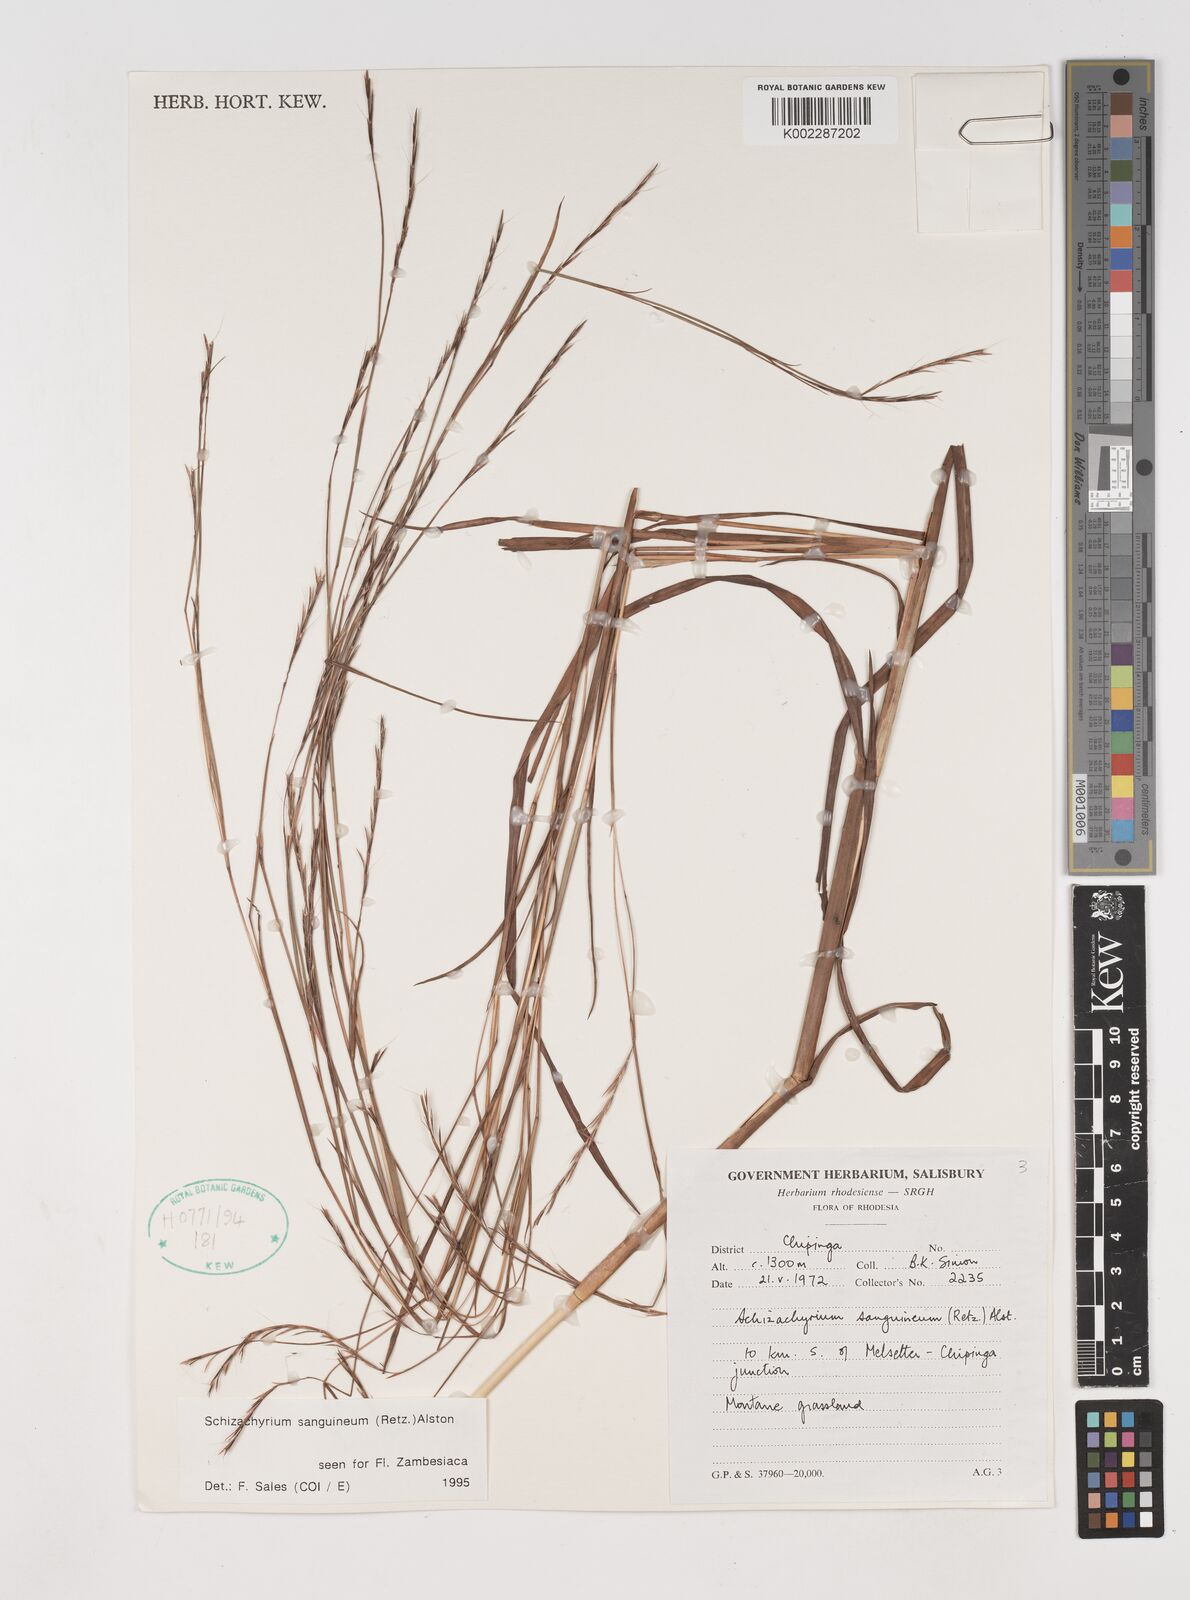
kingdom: Plantae
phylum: Tracheophyta
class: Liliopsida
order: Poales
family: Poaceae
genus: Schizachyrium
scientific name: Schizachyrium sanguineum
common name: Crimson bluestem
